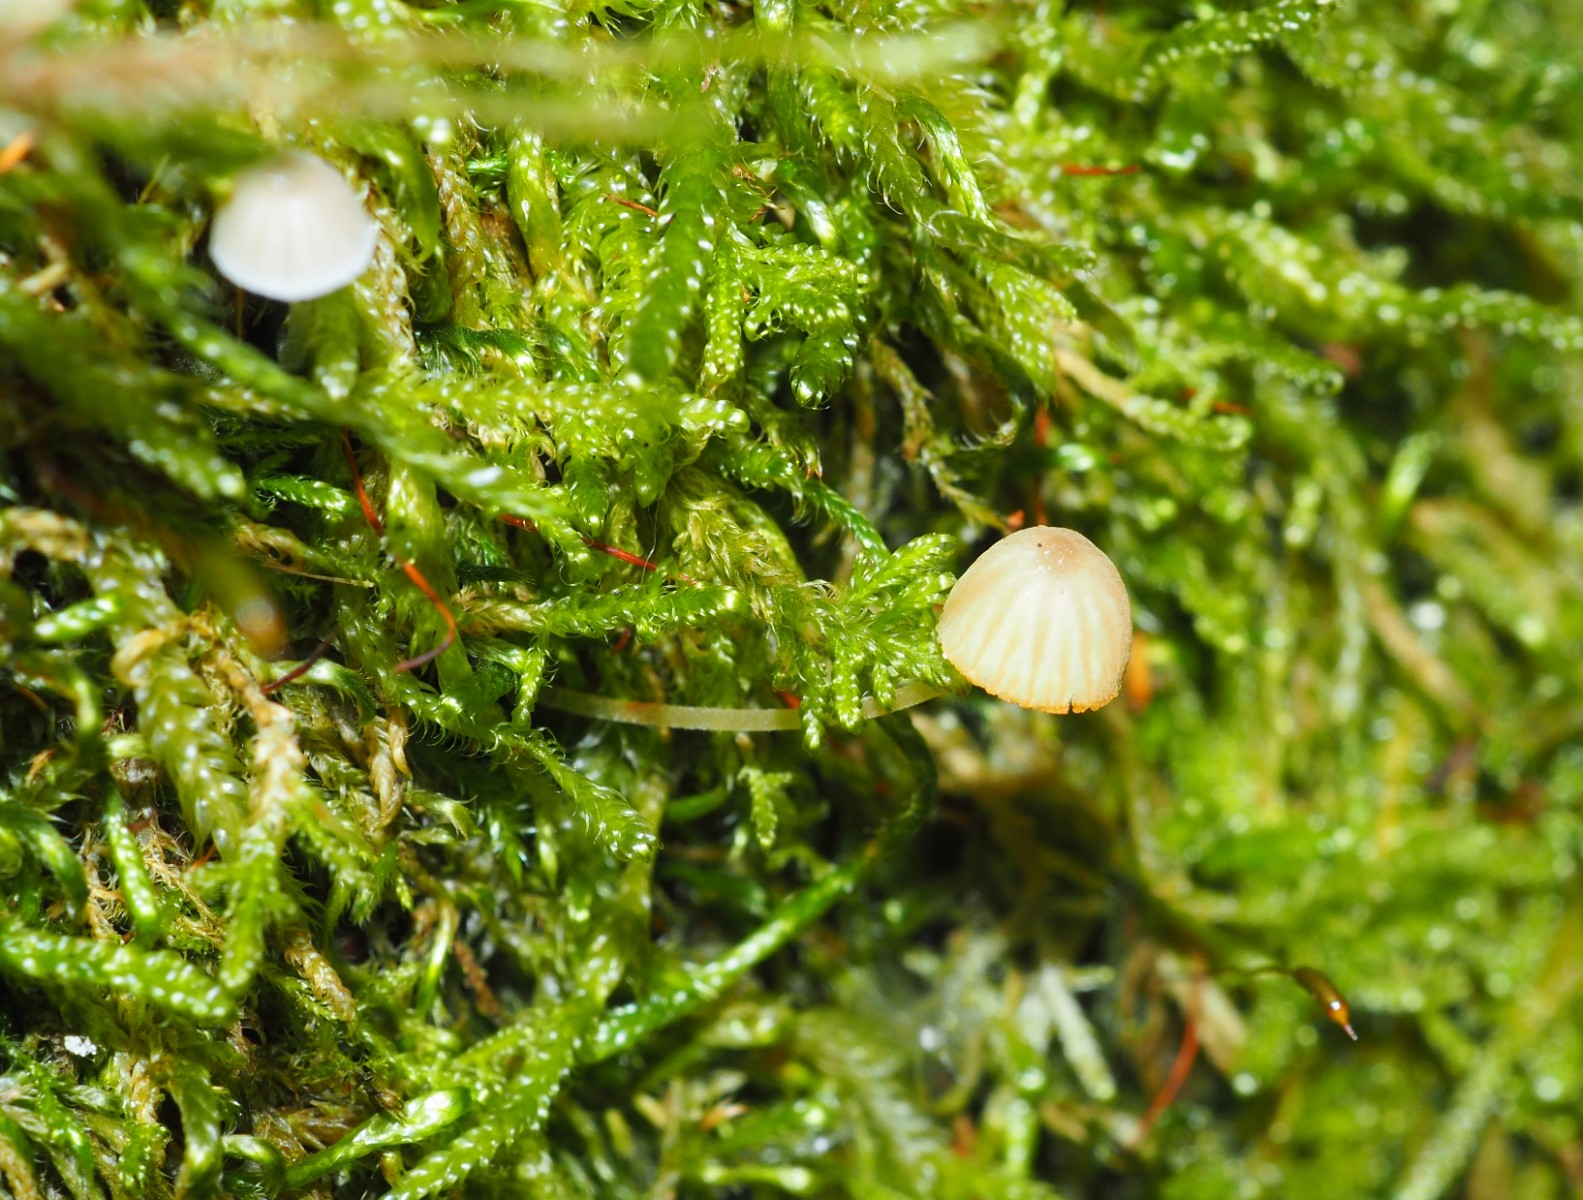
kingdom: Fungi
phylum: Basidiomycota
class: Agaricomycetes
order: Agaricales
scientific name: Agaricales
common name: champignonordenen
